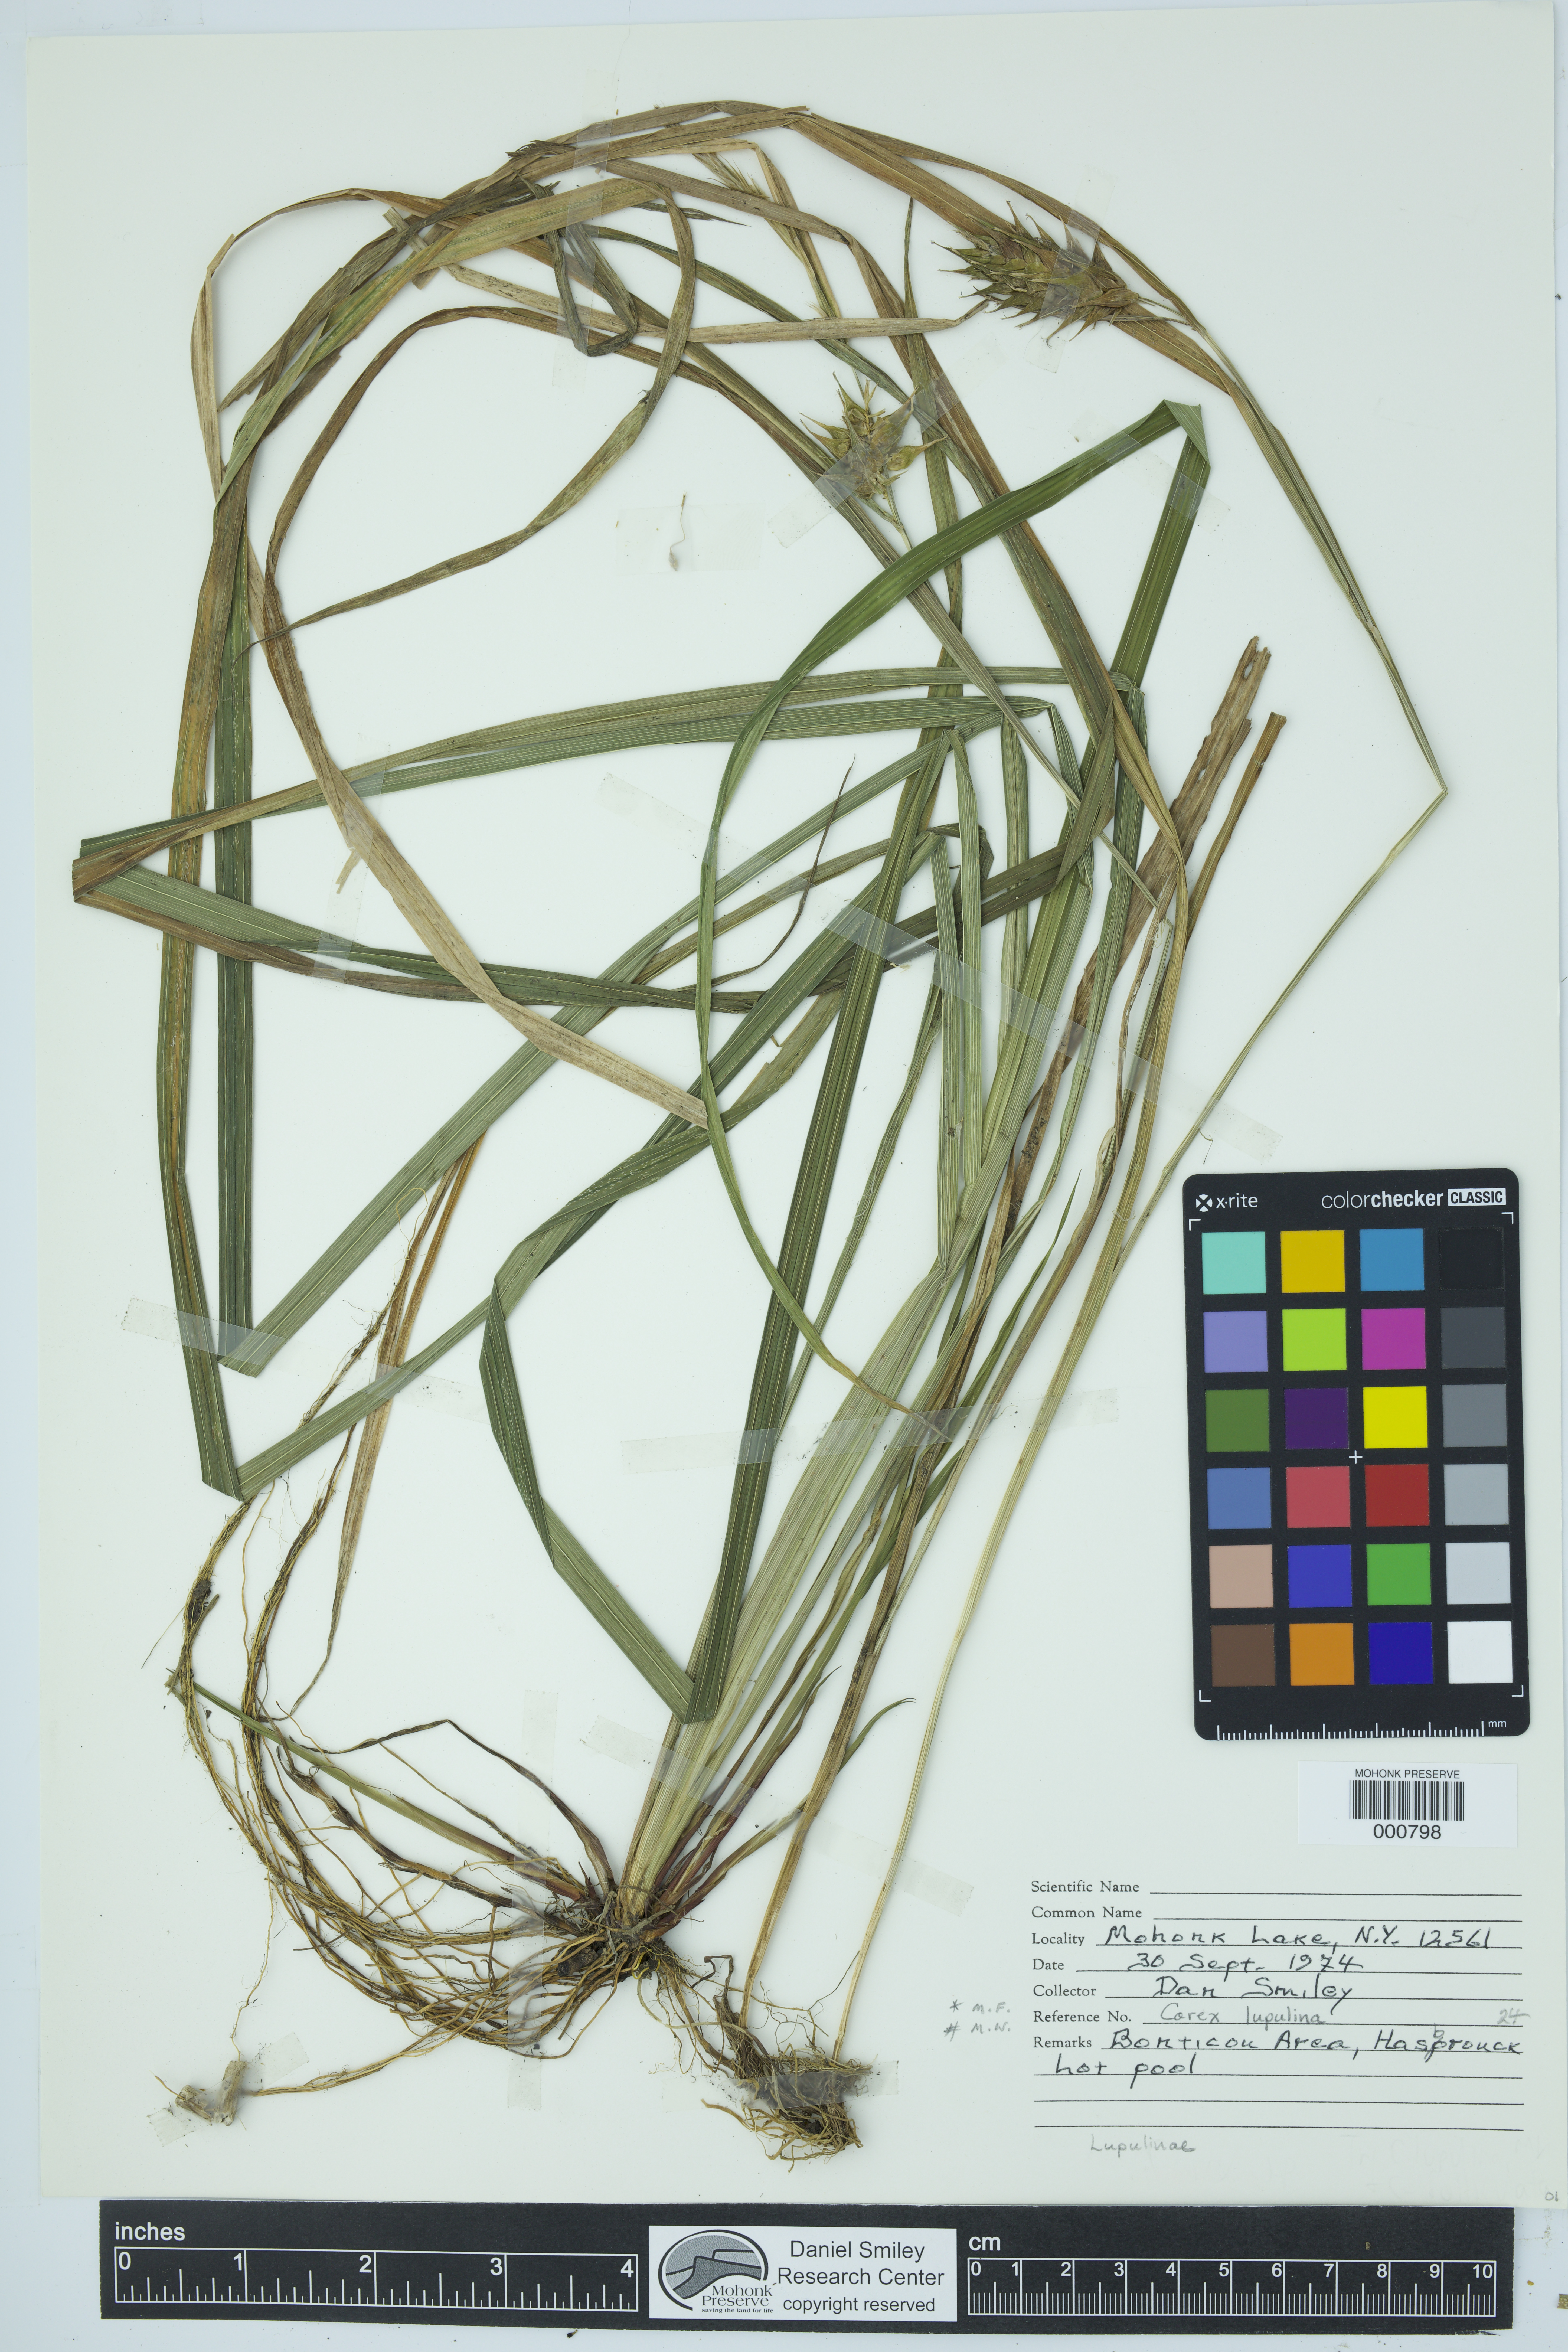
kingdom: Plantae
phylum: Tracheophyta
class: Liliopsida
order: Poales
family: Cyperaceae
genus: Carex
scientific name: Carex lupulina
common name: Hop sedge
